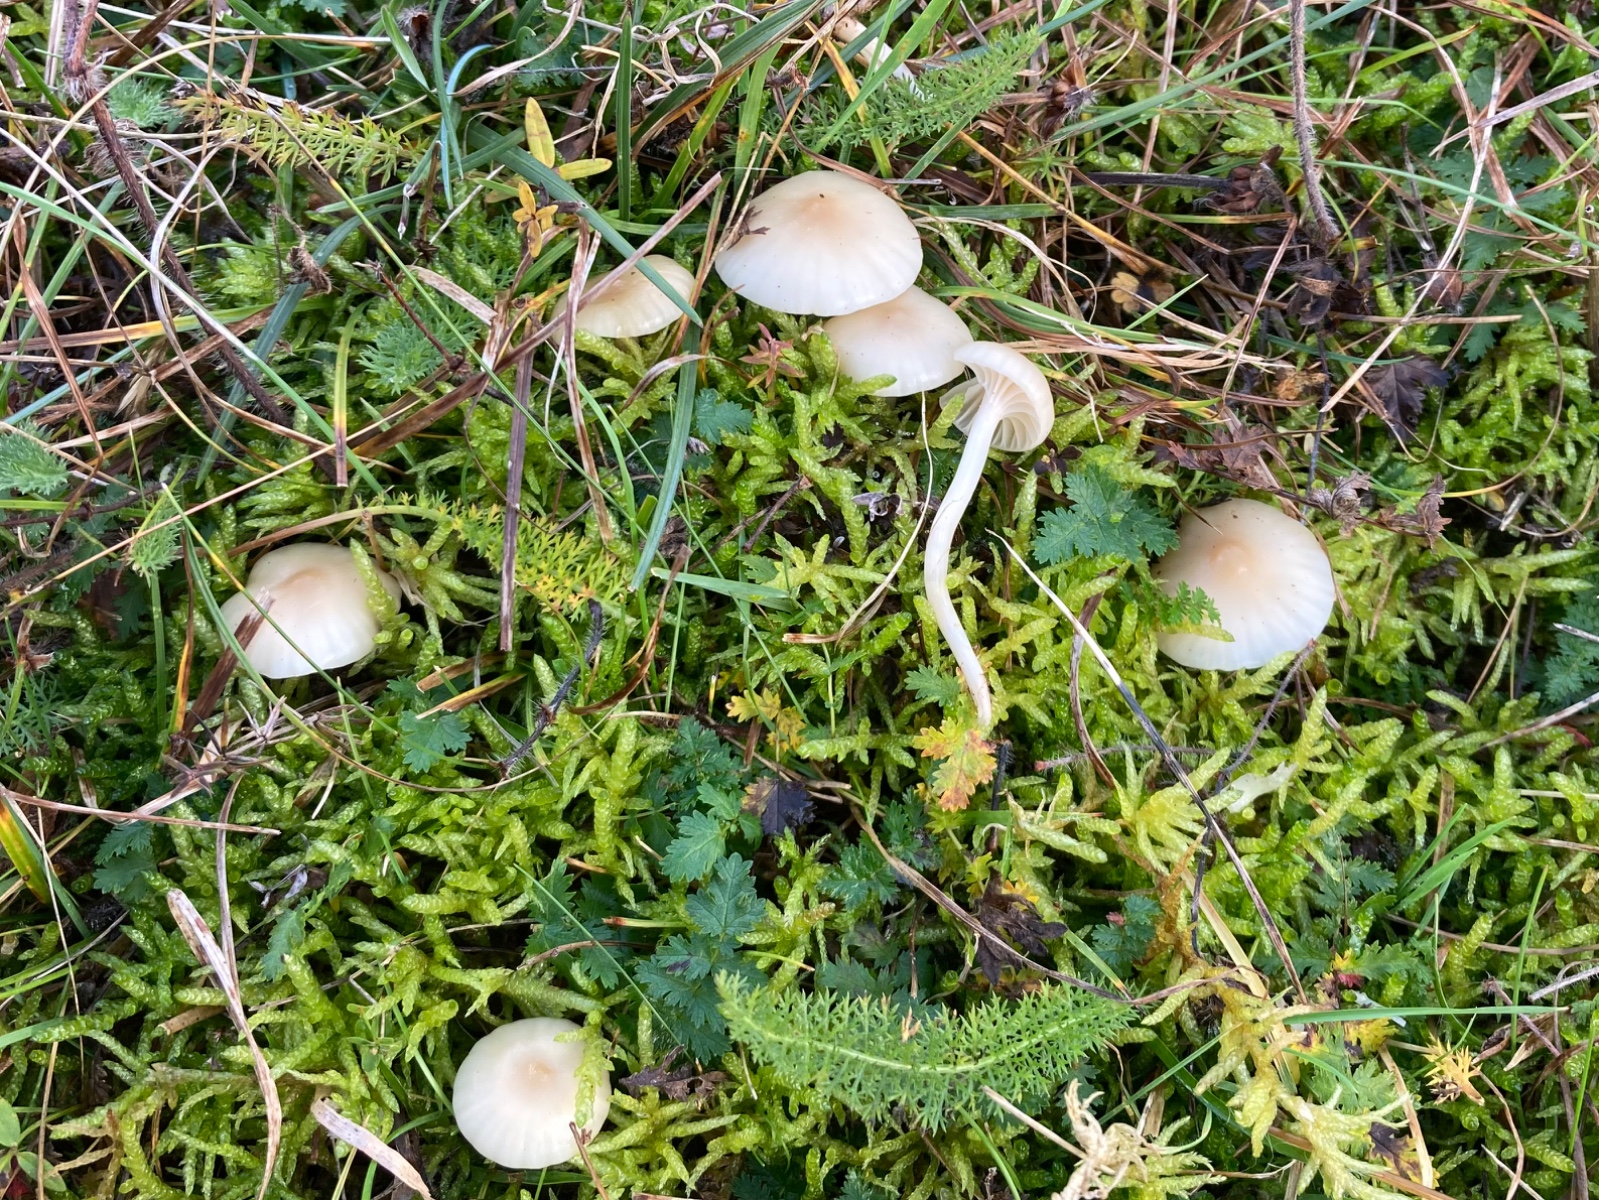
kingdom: Fungi
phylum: Basidiomycota
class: Agaricomycetes
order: Agaricales
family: Hygrophoraceae
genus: Cuphophyllus
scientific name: Cuphophyllus virgineus
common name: brunøjet vokshat
